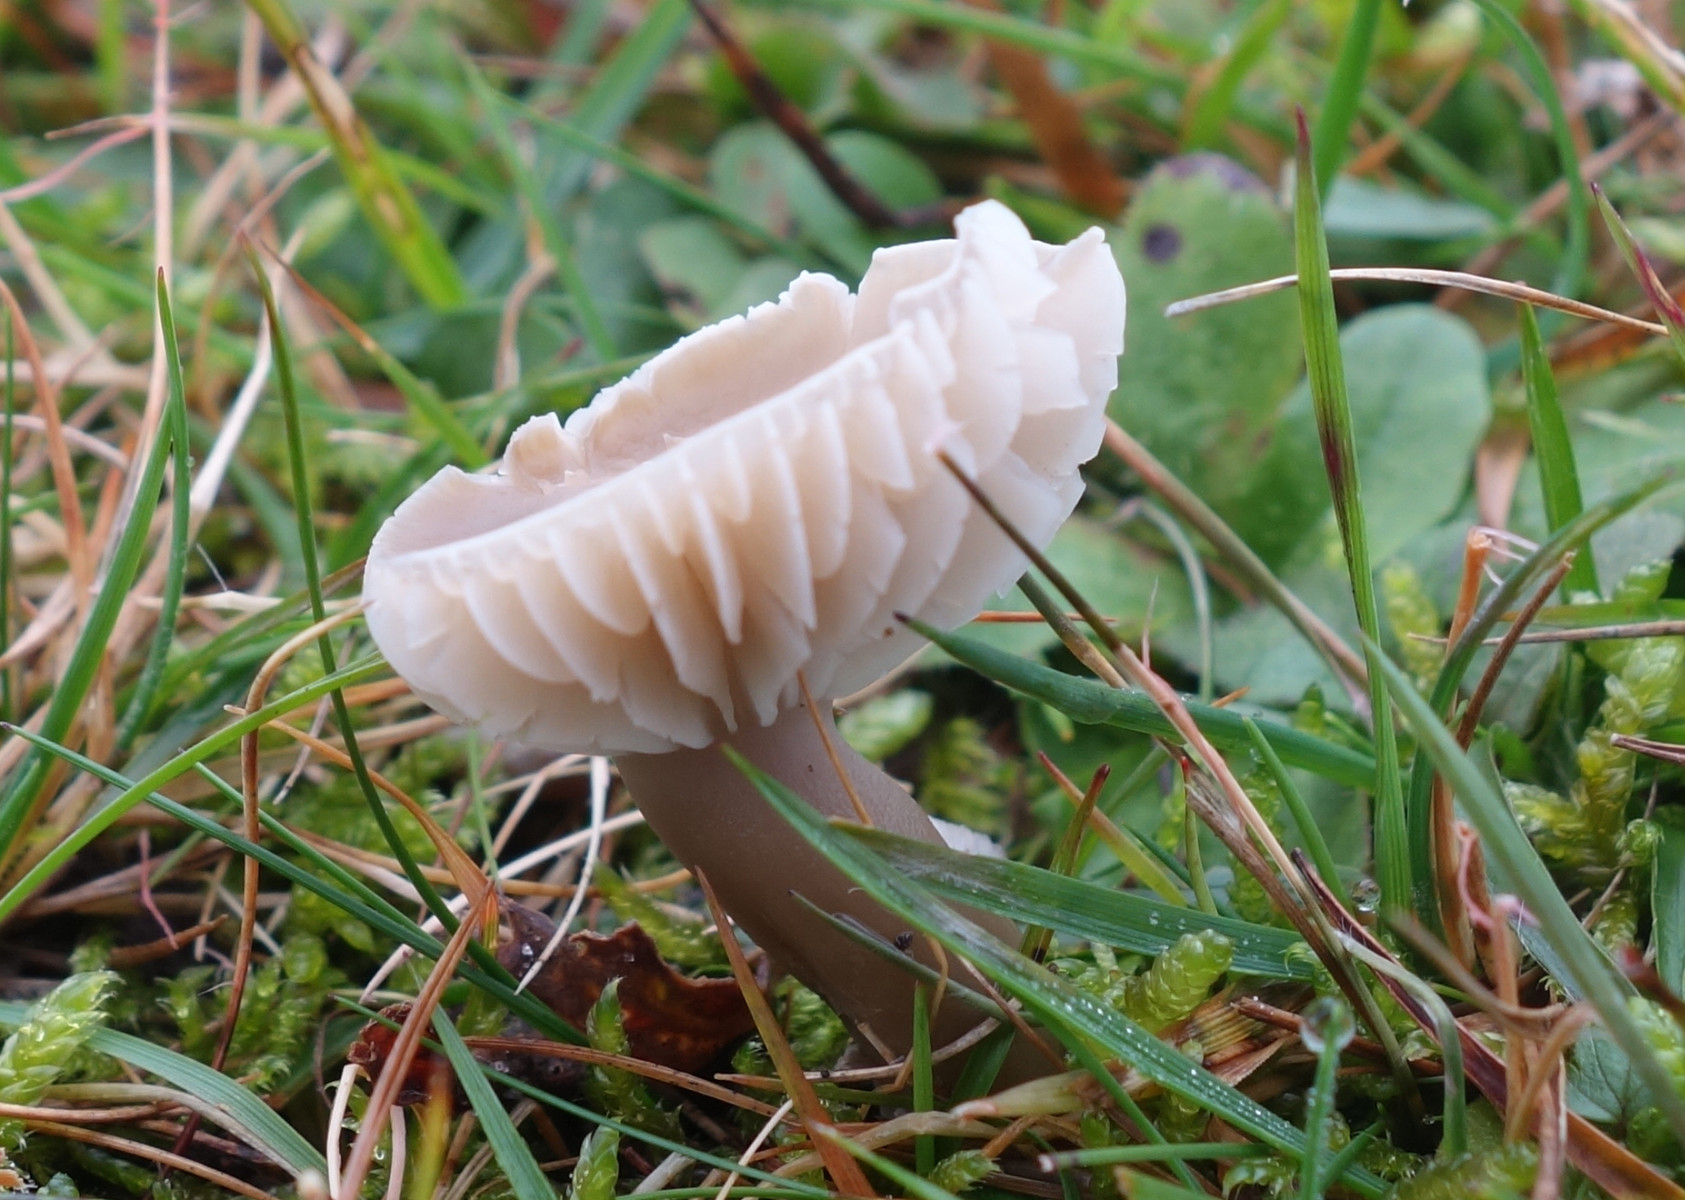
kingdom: Fungi
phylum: Basidiomycota
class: Agaricomycetes
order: Agaricales
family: Hygrophoraceae
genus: Gliophorus
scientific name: Gliophorus irrigatus
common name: slimet vokshat
